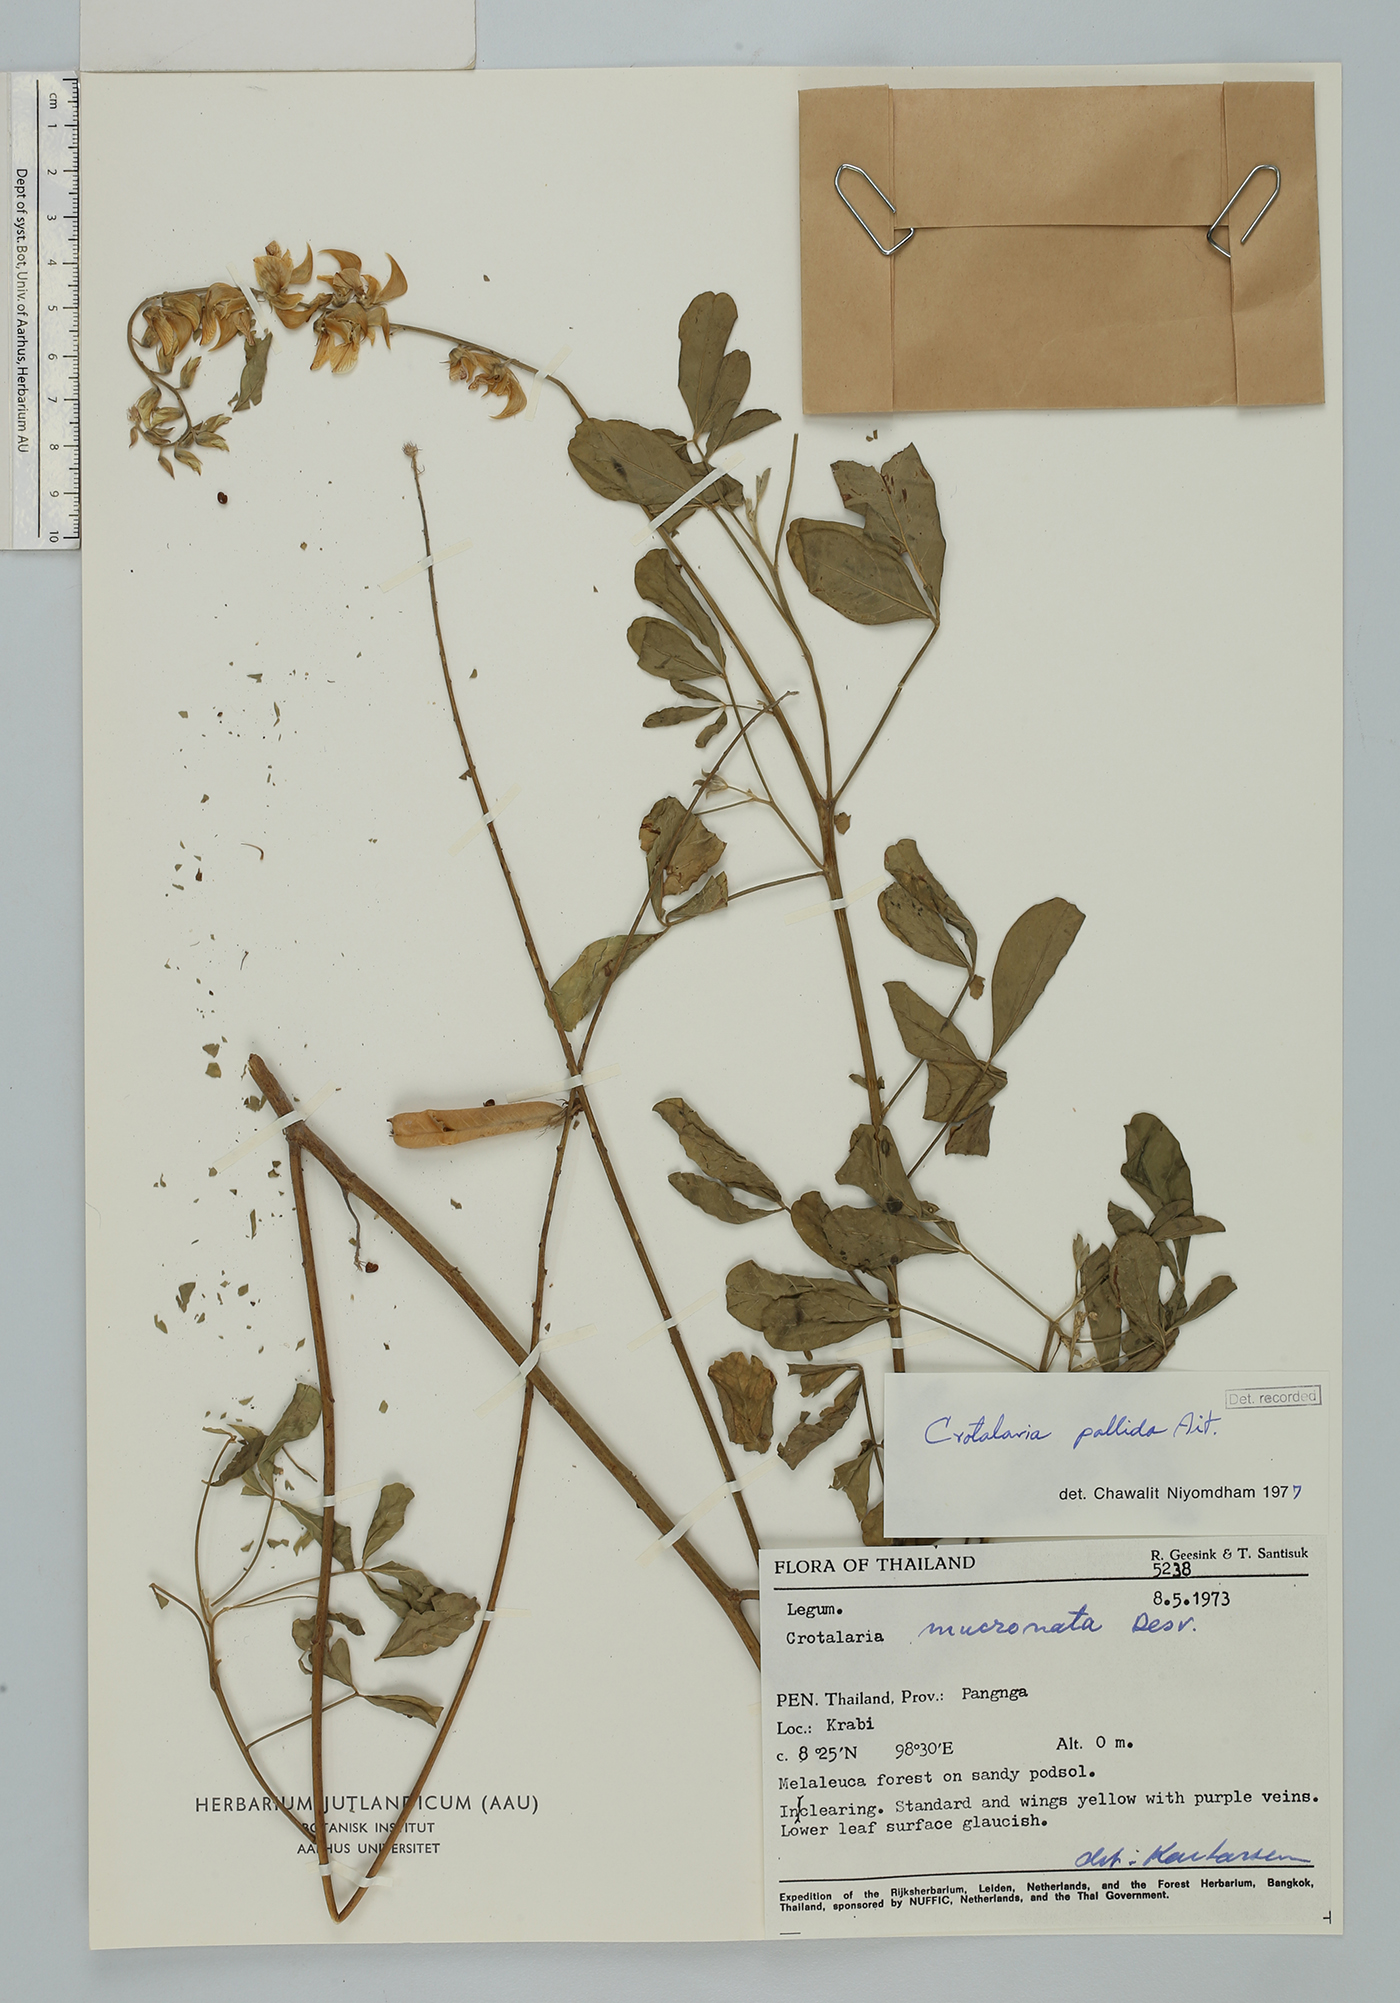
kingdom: Plantae
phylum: Tracheophyta
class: Magnoliopsida
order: Fabales
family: Fabaceae
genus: Crotalaria
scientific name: Crotalaria pallida
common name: Smooth rattlebox
